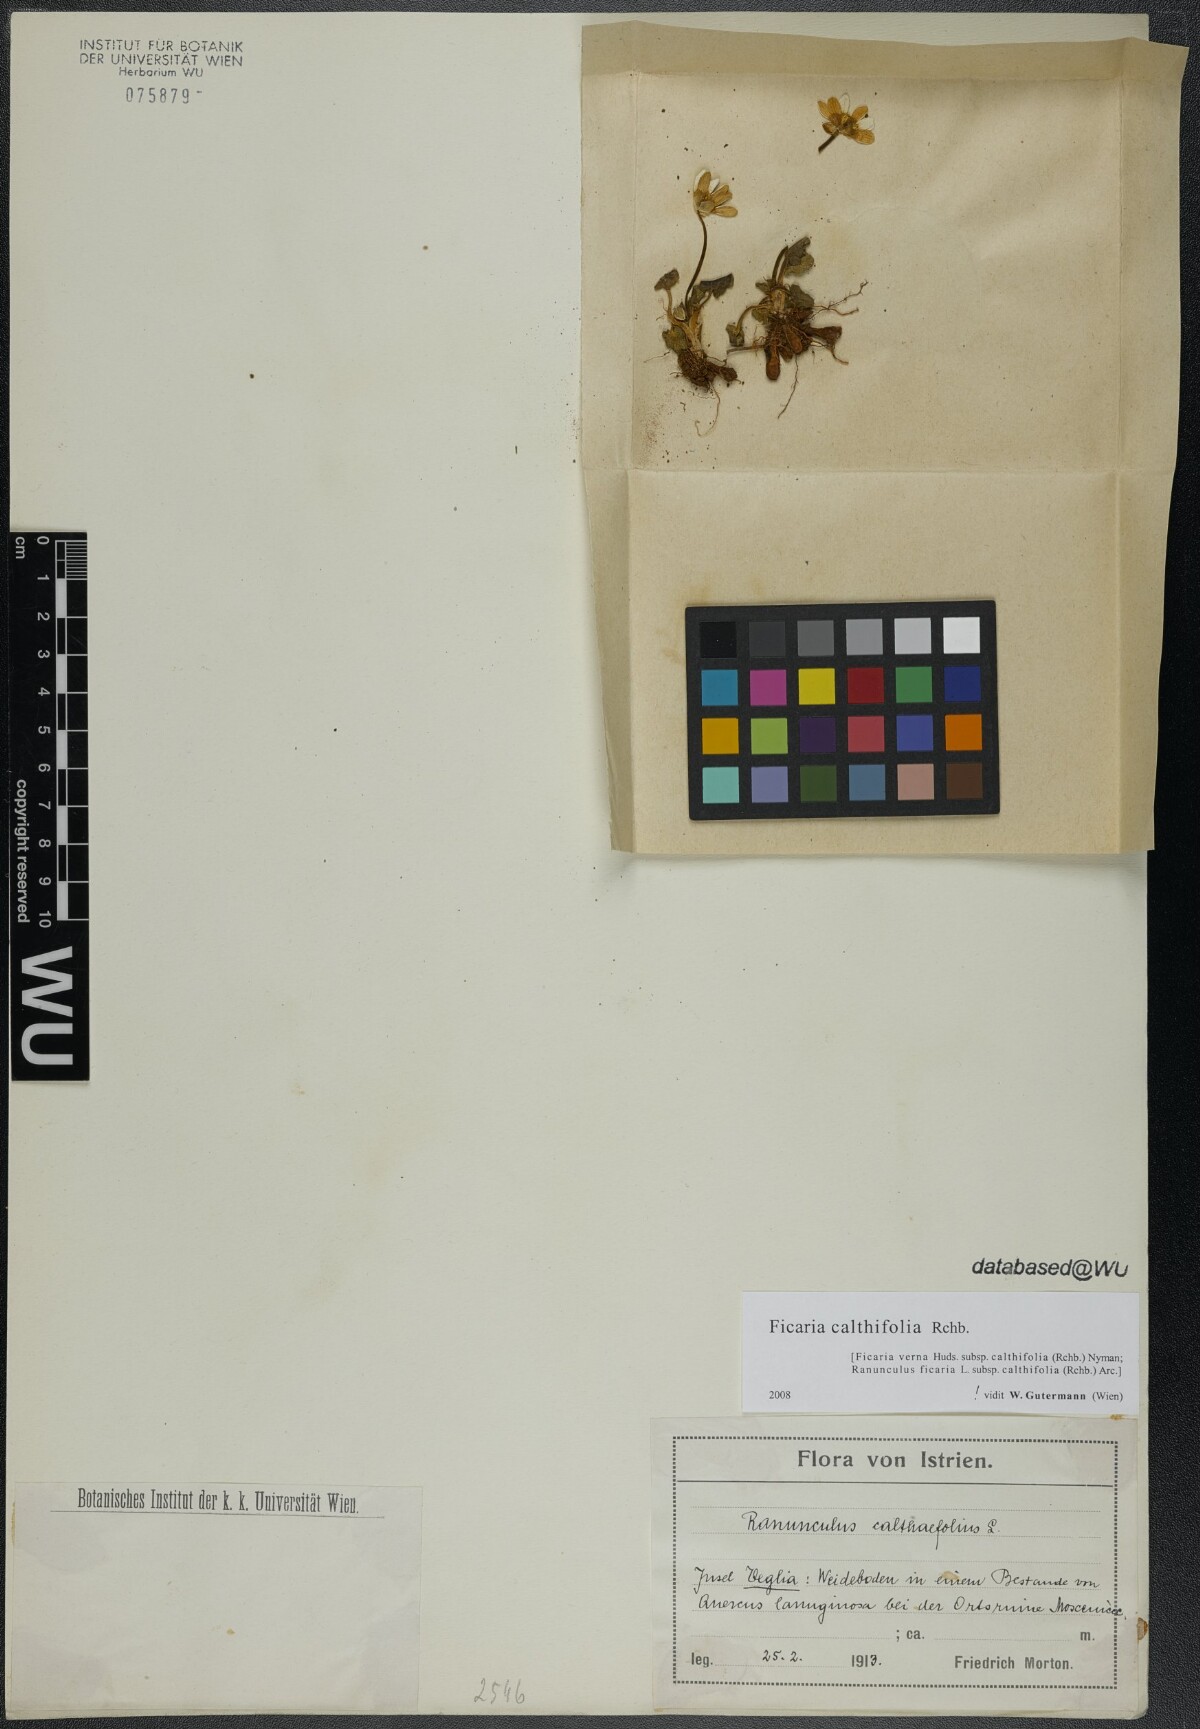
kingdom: Plantae
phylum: Tracheophyta
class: Magnoliopsida
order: Ranunculales
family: Ranunculaceae
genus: Ficaria
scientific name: Ficaria calthifolia
